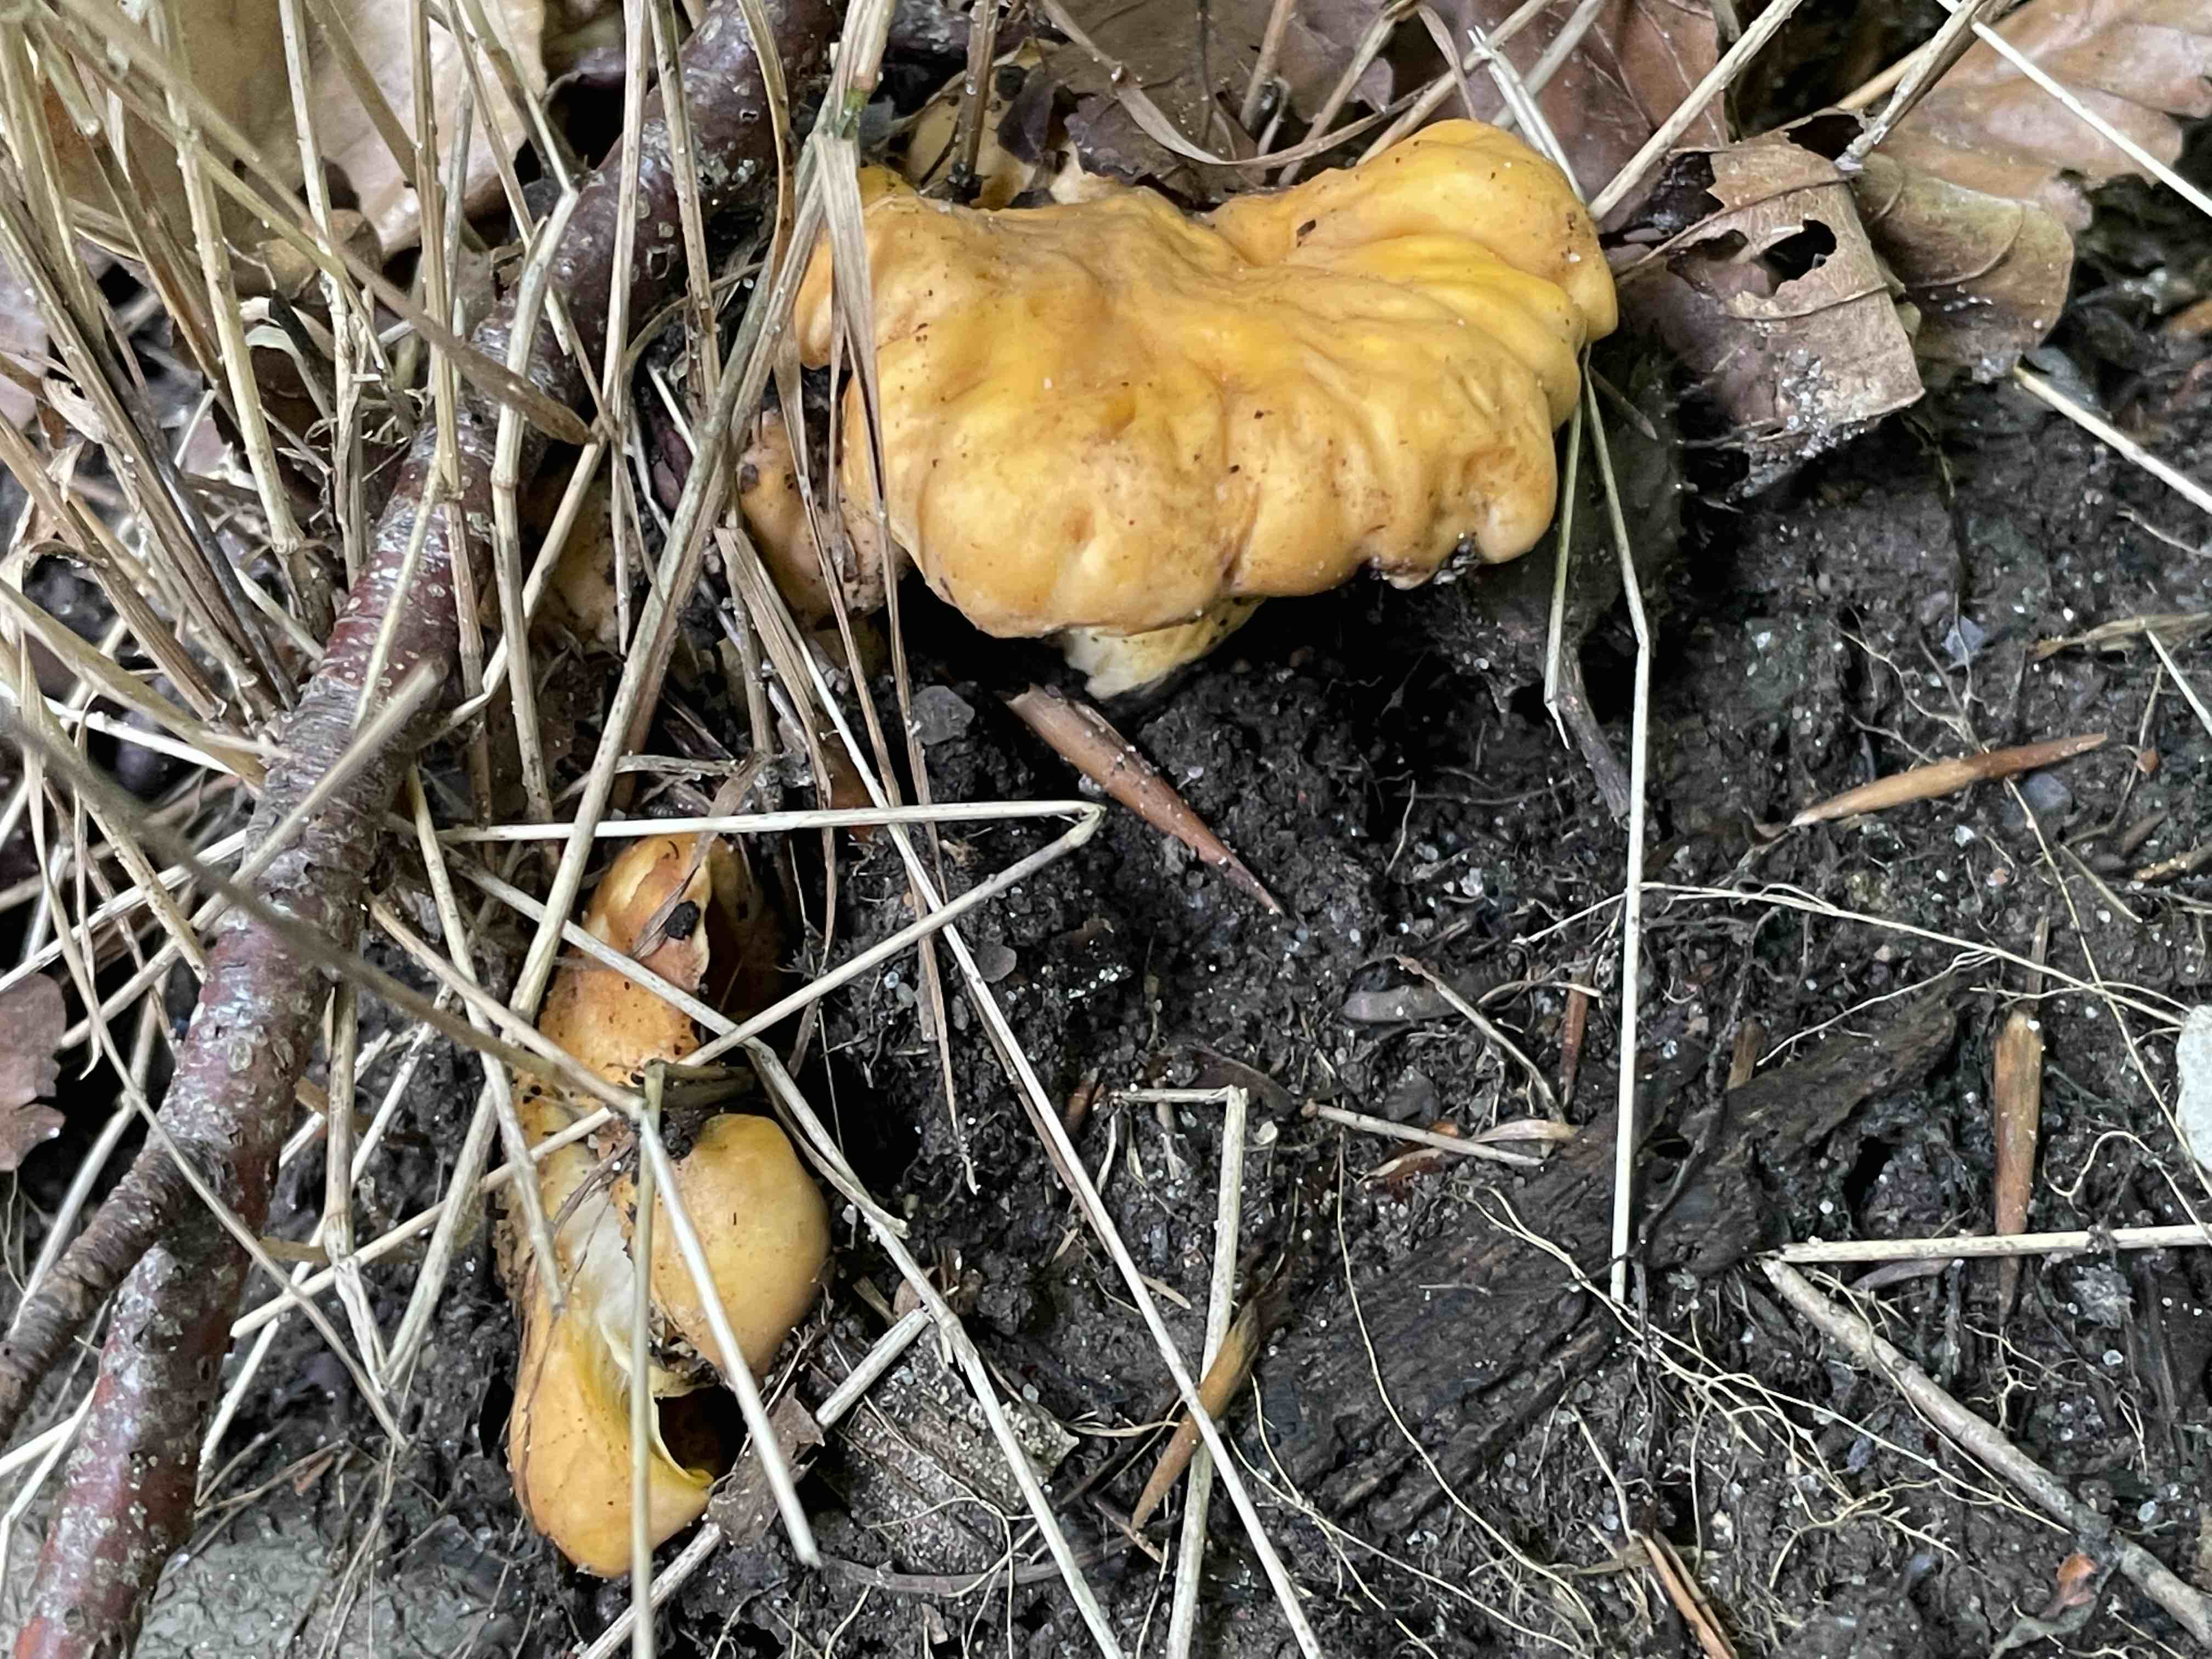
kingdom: Fungi
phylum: Basidiomycota
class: Agaricomycetes
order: Cantharellales
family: Hydnaceae
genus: Cantharellus
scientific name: Cantharellus pallens
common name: bleg kantarel
